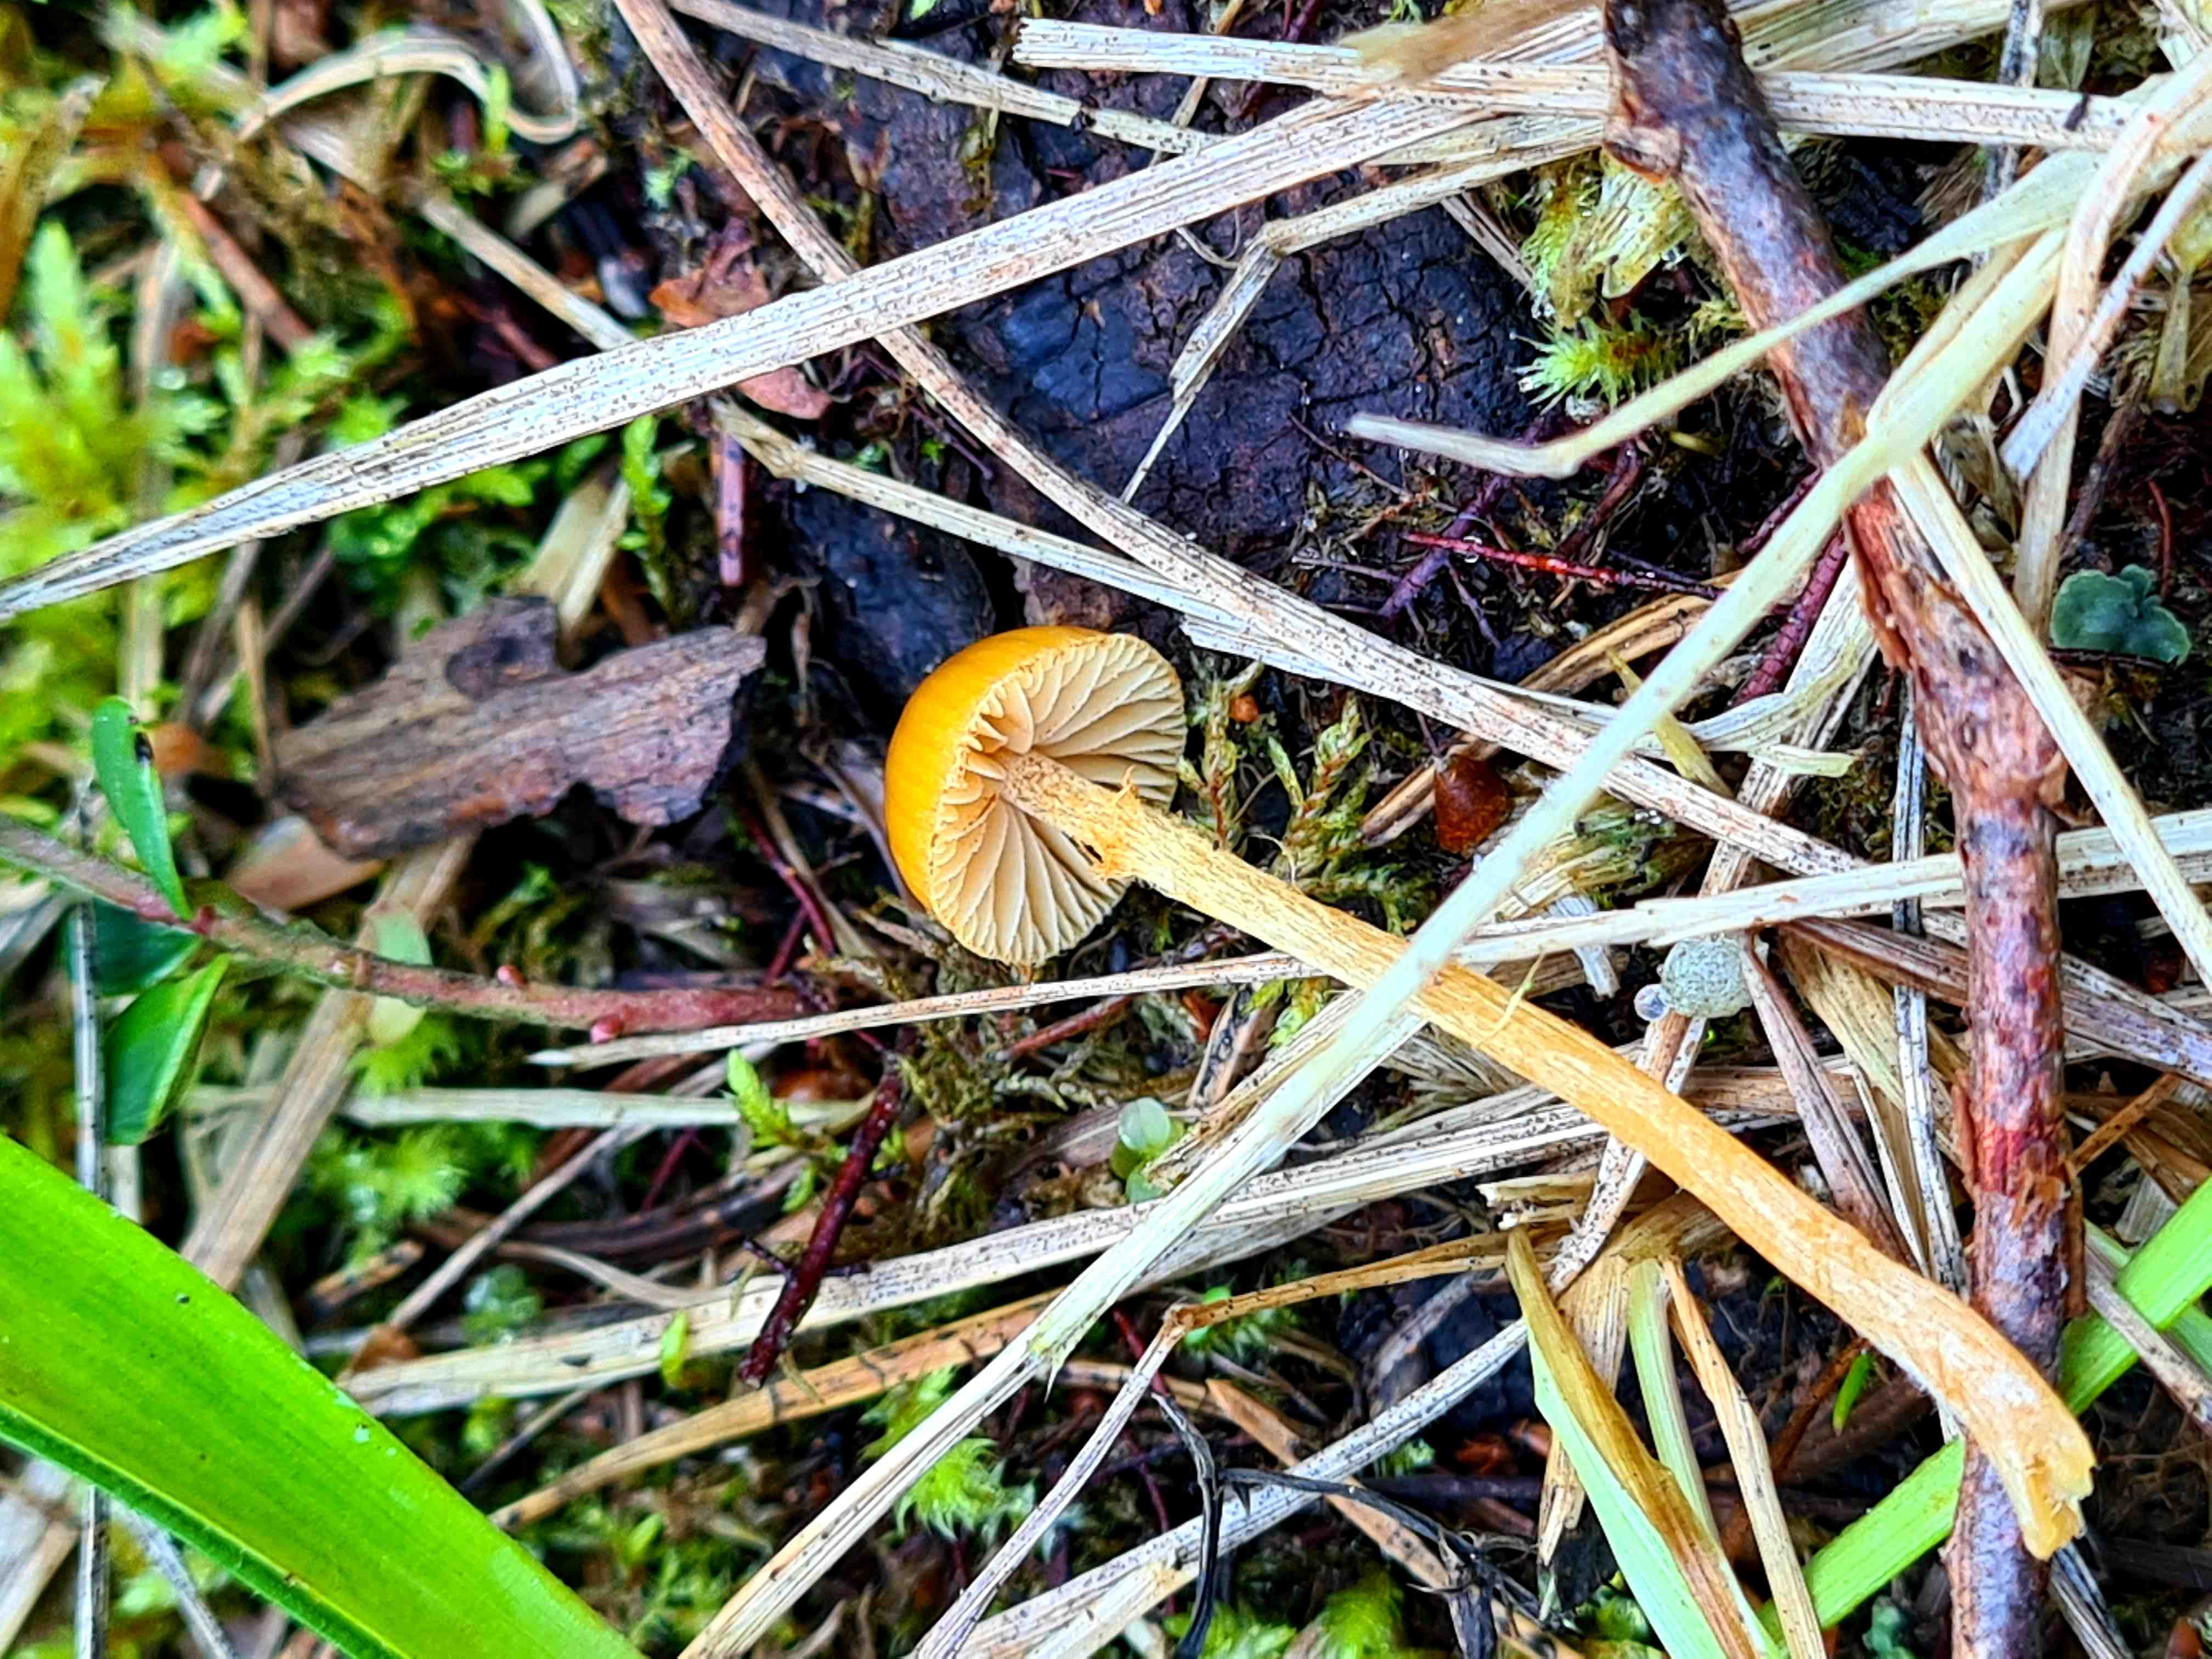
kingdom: Fungi
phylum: Basidiomycota
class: Agaricomycetes
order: Agaricales
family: Hymenogastraceae
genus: Galerina
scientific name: Galerina
